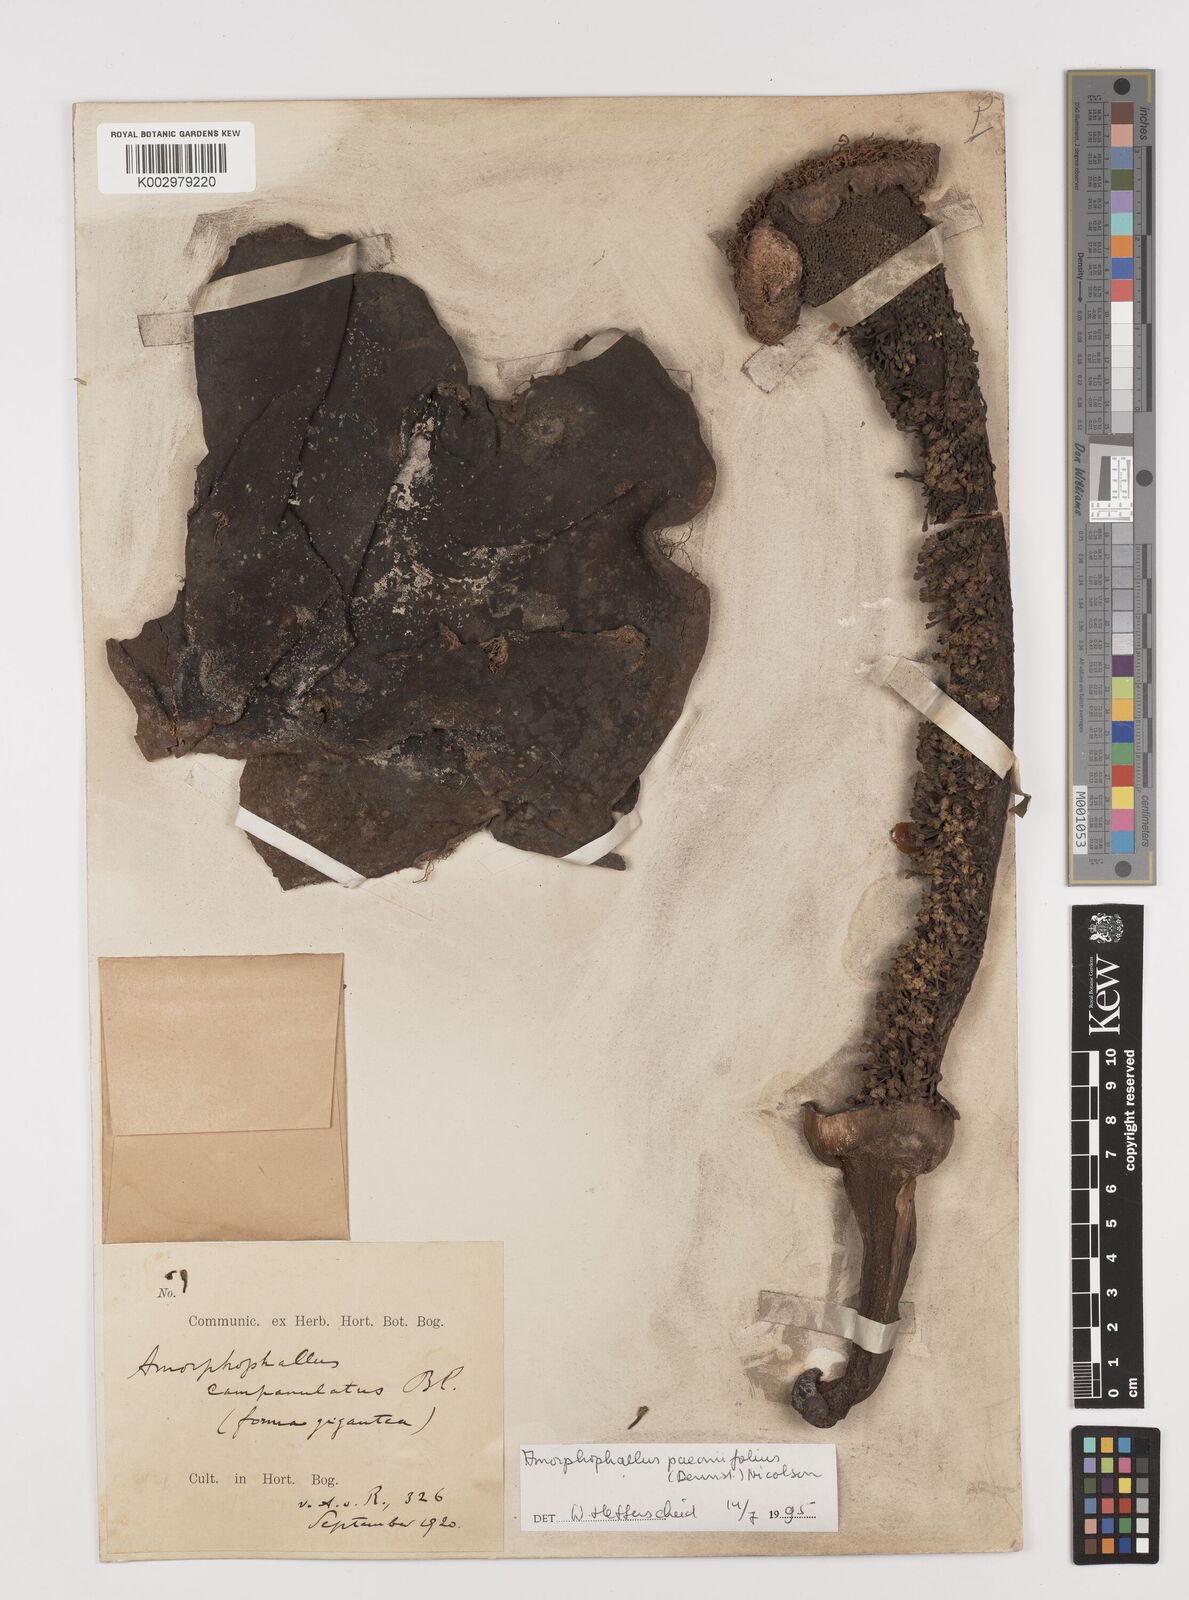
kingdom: Plantae
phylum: Tracheophyta
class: Liliopsida
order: Alismatales
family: Araceae
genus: Amorphophallus
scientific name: Amorphophallus paeoniifolius
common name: Telinga-potato
